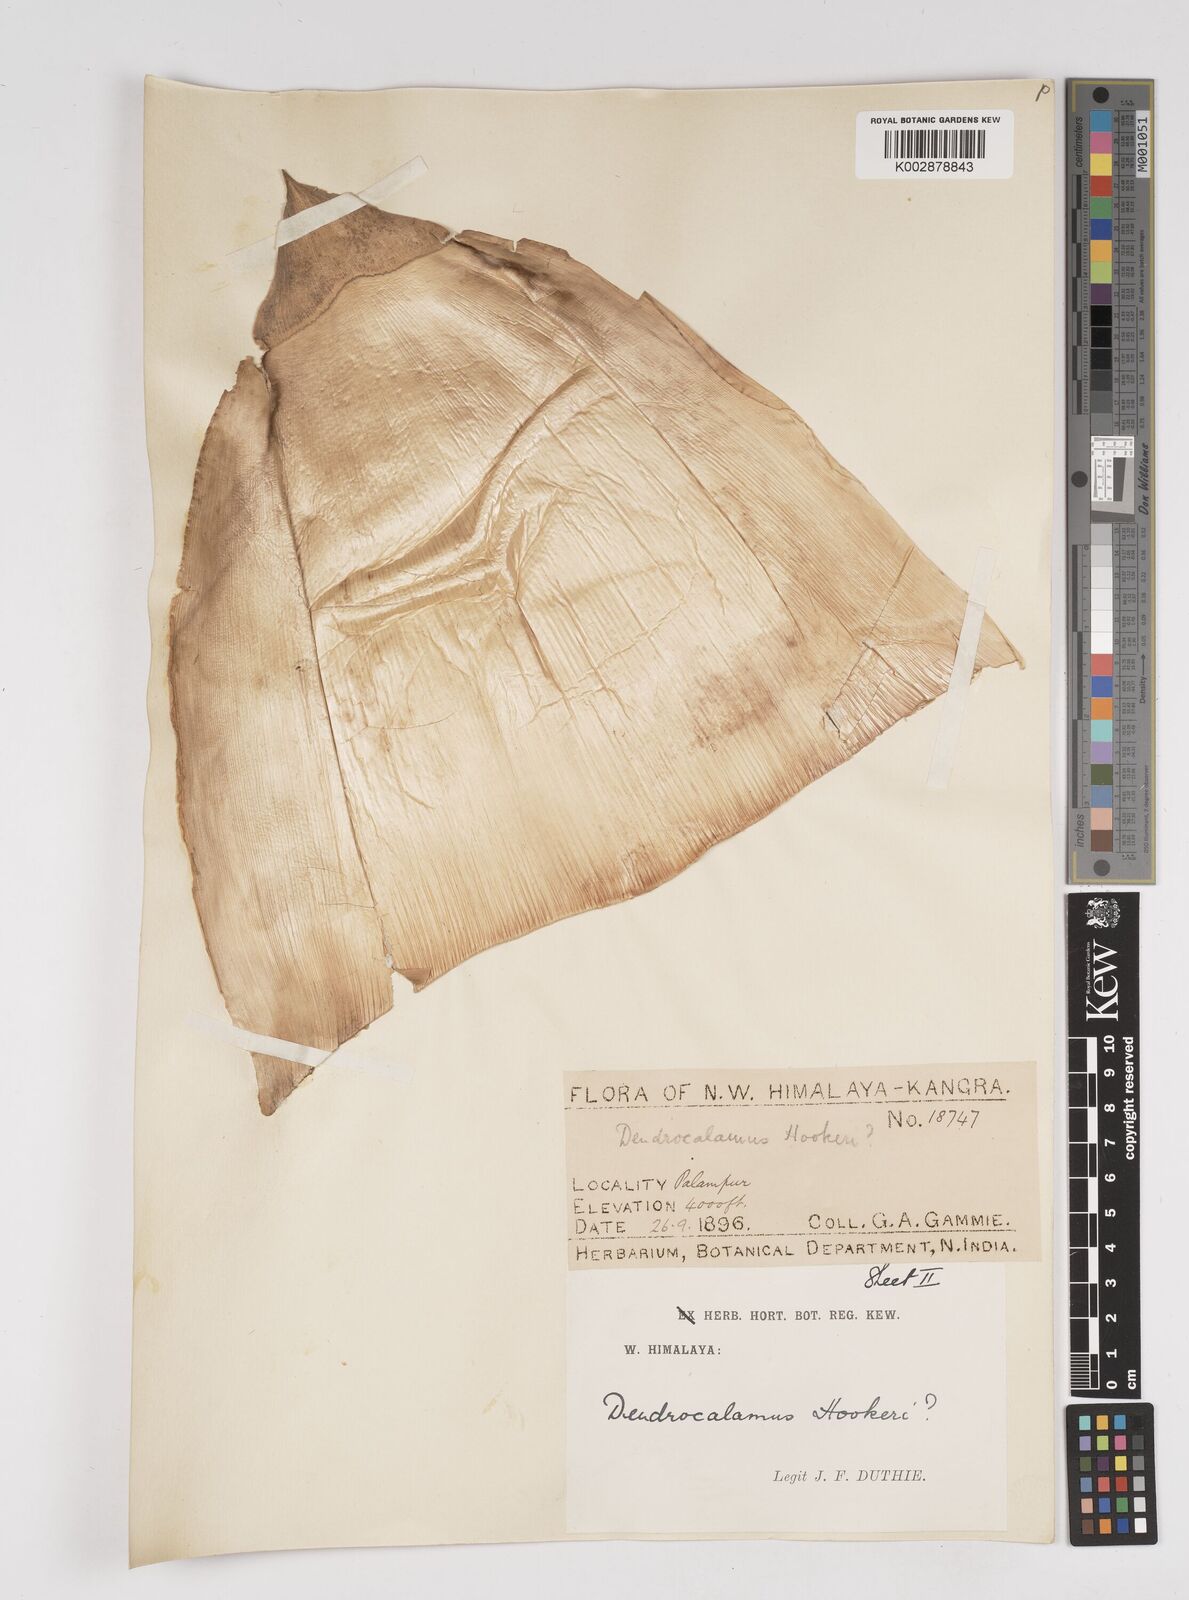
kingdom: Plantae
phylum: Tracheophyta
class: Liliopsida
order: Poales
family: Poaceae
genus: Dendrocalamus
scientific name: Dendrocalamus hookeri
